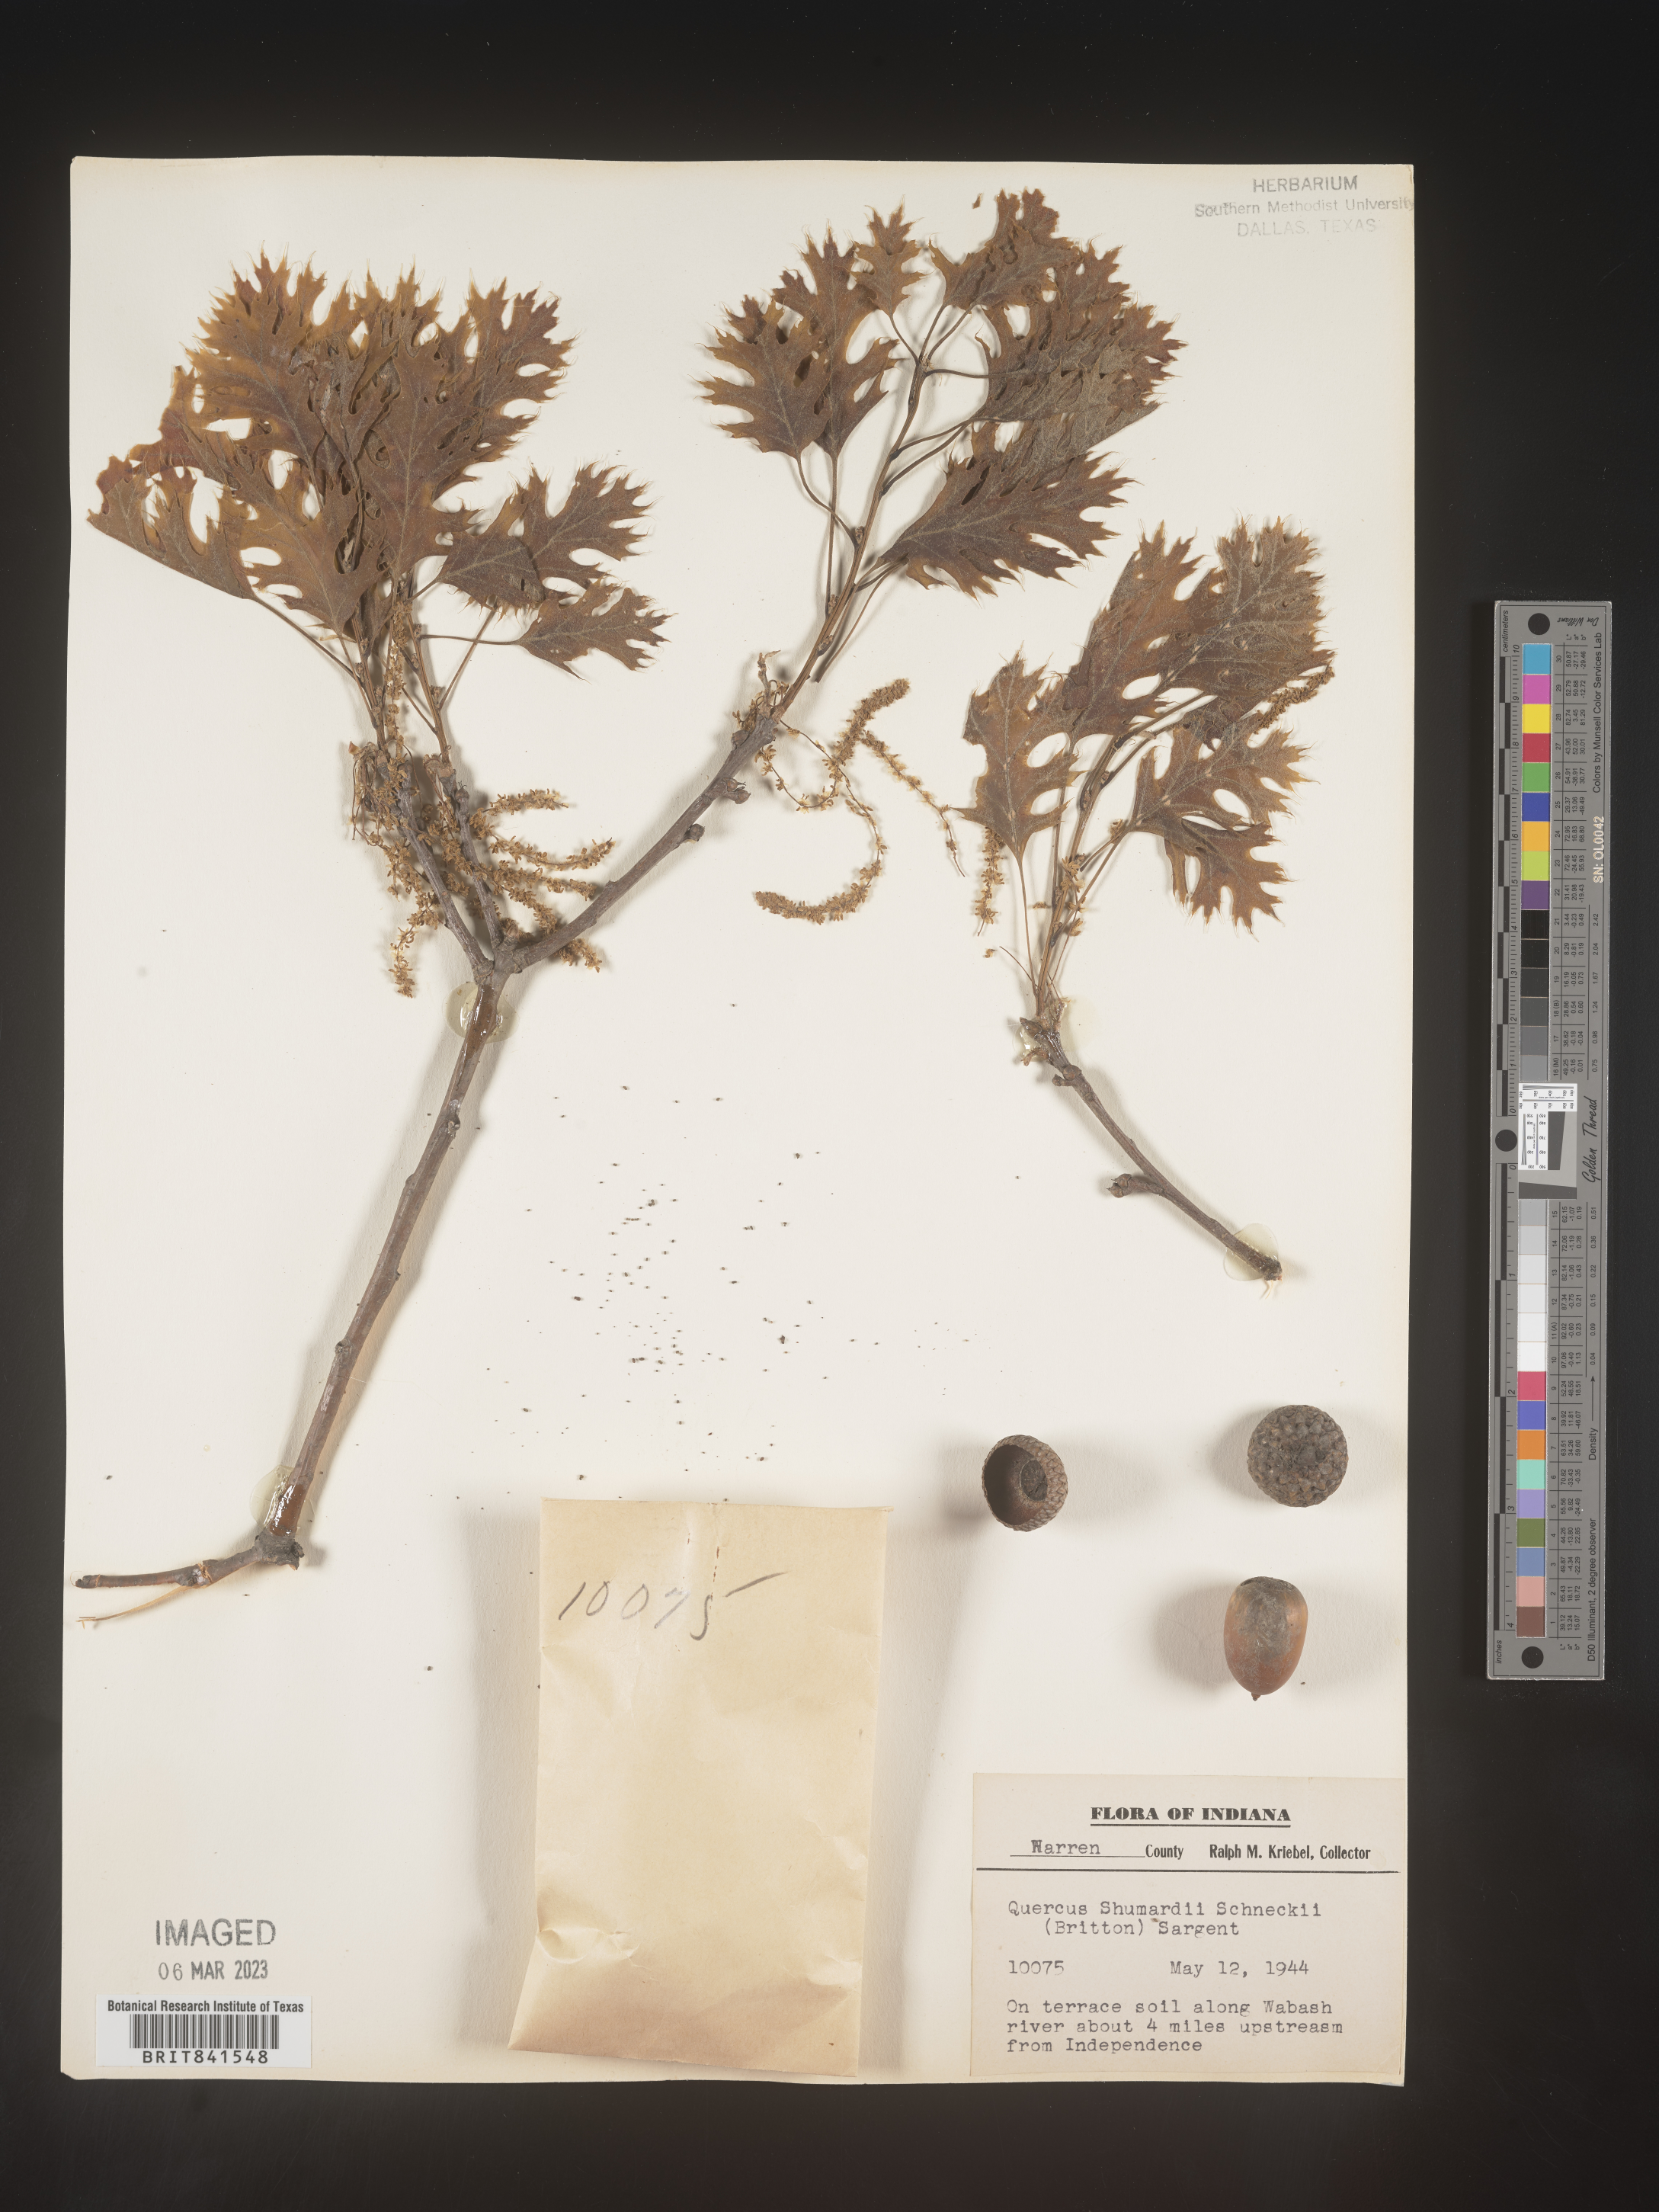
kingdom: Plantae
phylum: Tracheophyta
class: Magnoliopsida
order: Fagales
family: Fagaceae
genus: Quercus
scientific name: Quercus shumardii
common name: Shumard oak
